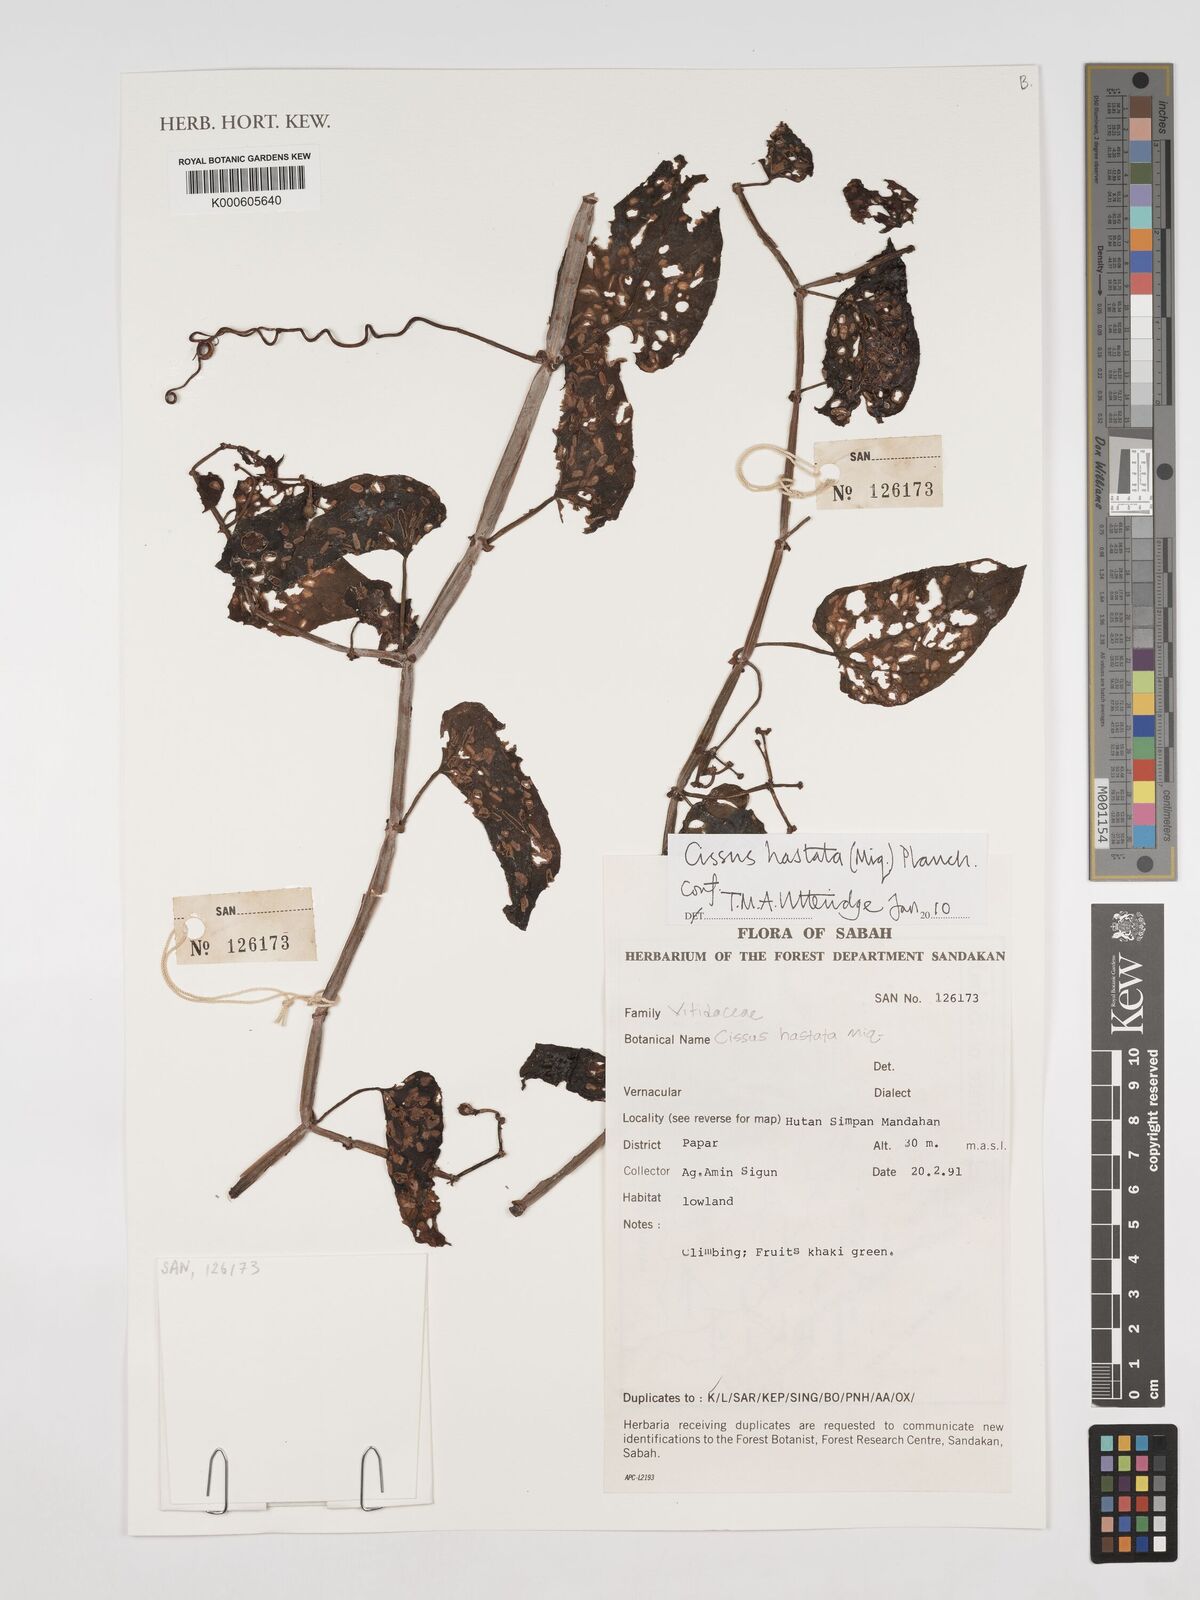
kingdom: Plantae
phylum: Tracheophyta
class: Magnoliopsida
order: Vitales
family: Vitaceae
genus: Cissus
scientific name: Cissus
